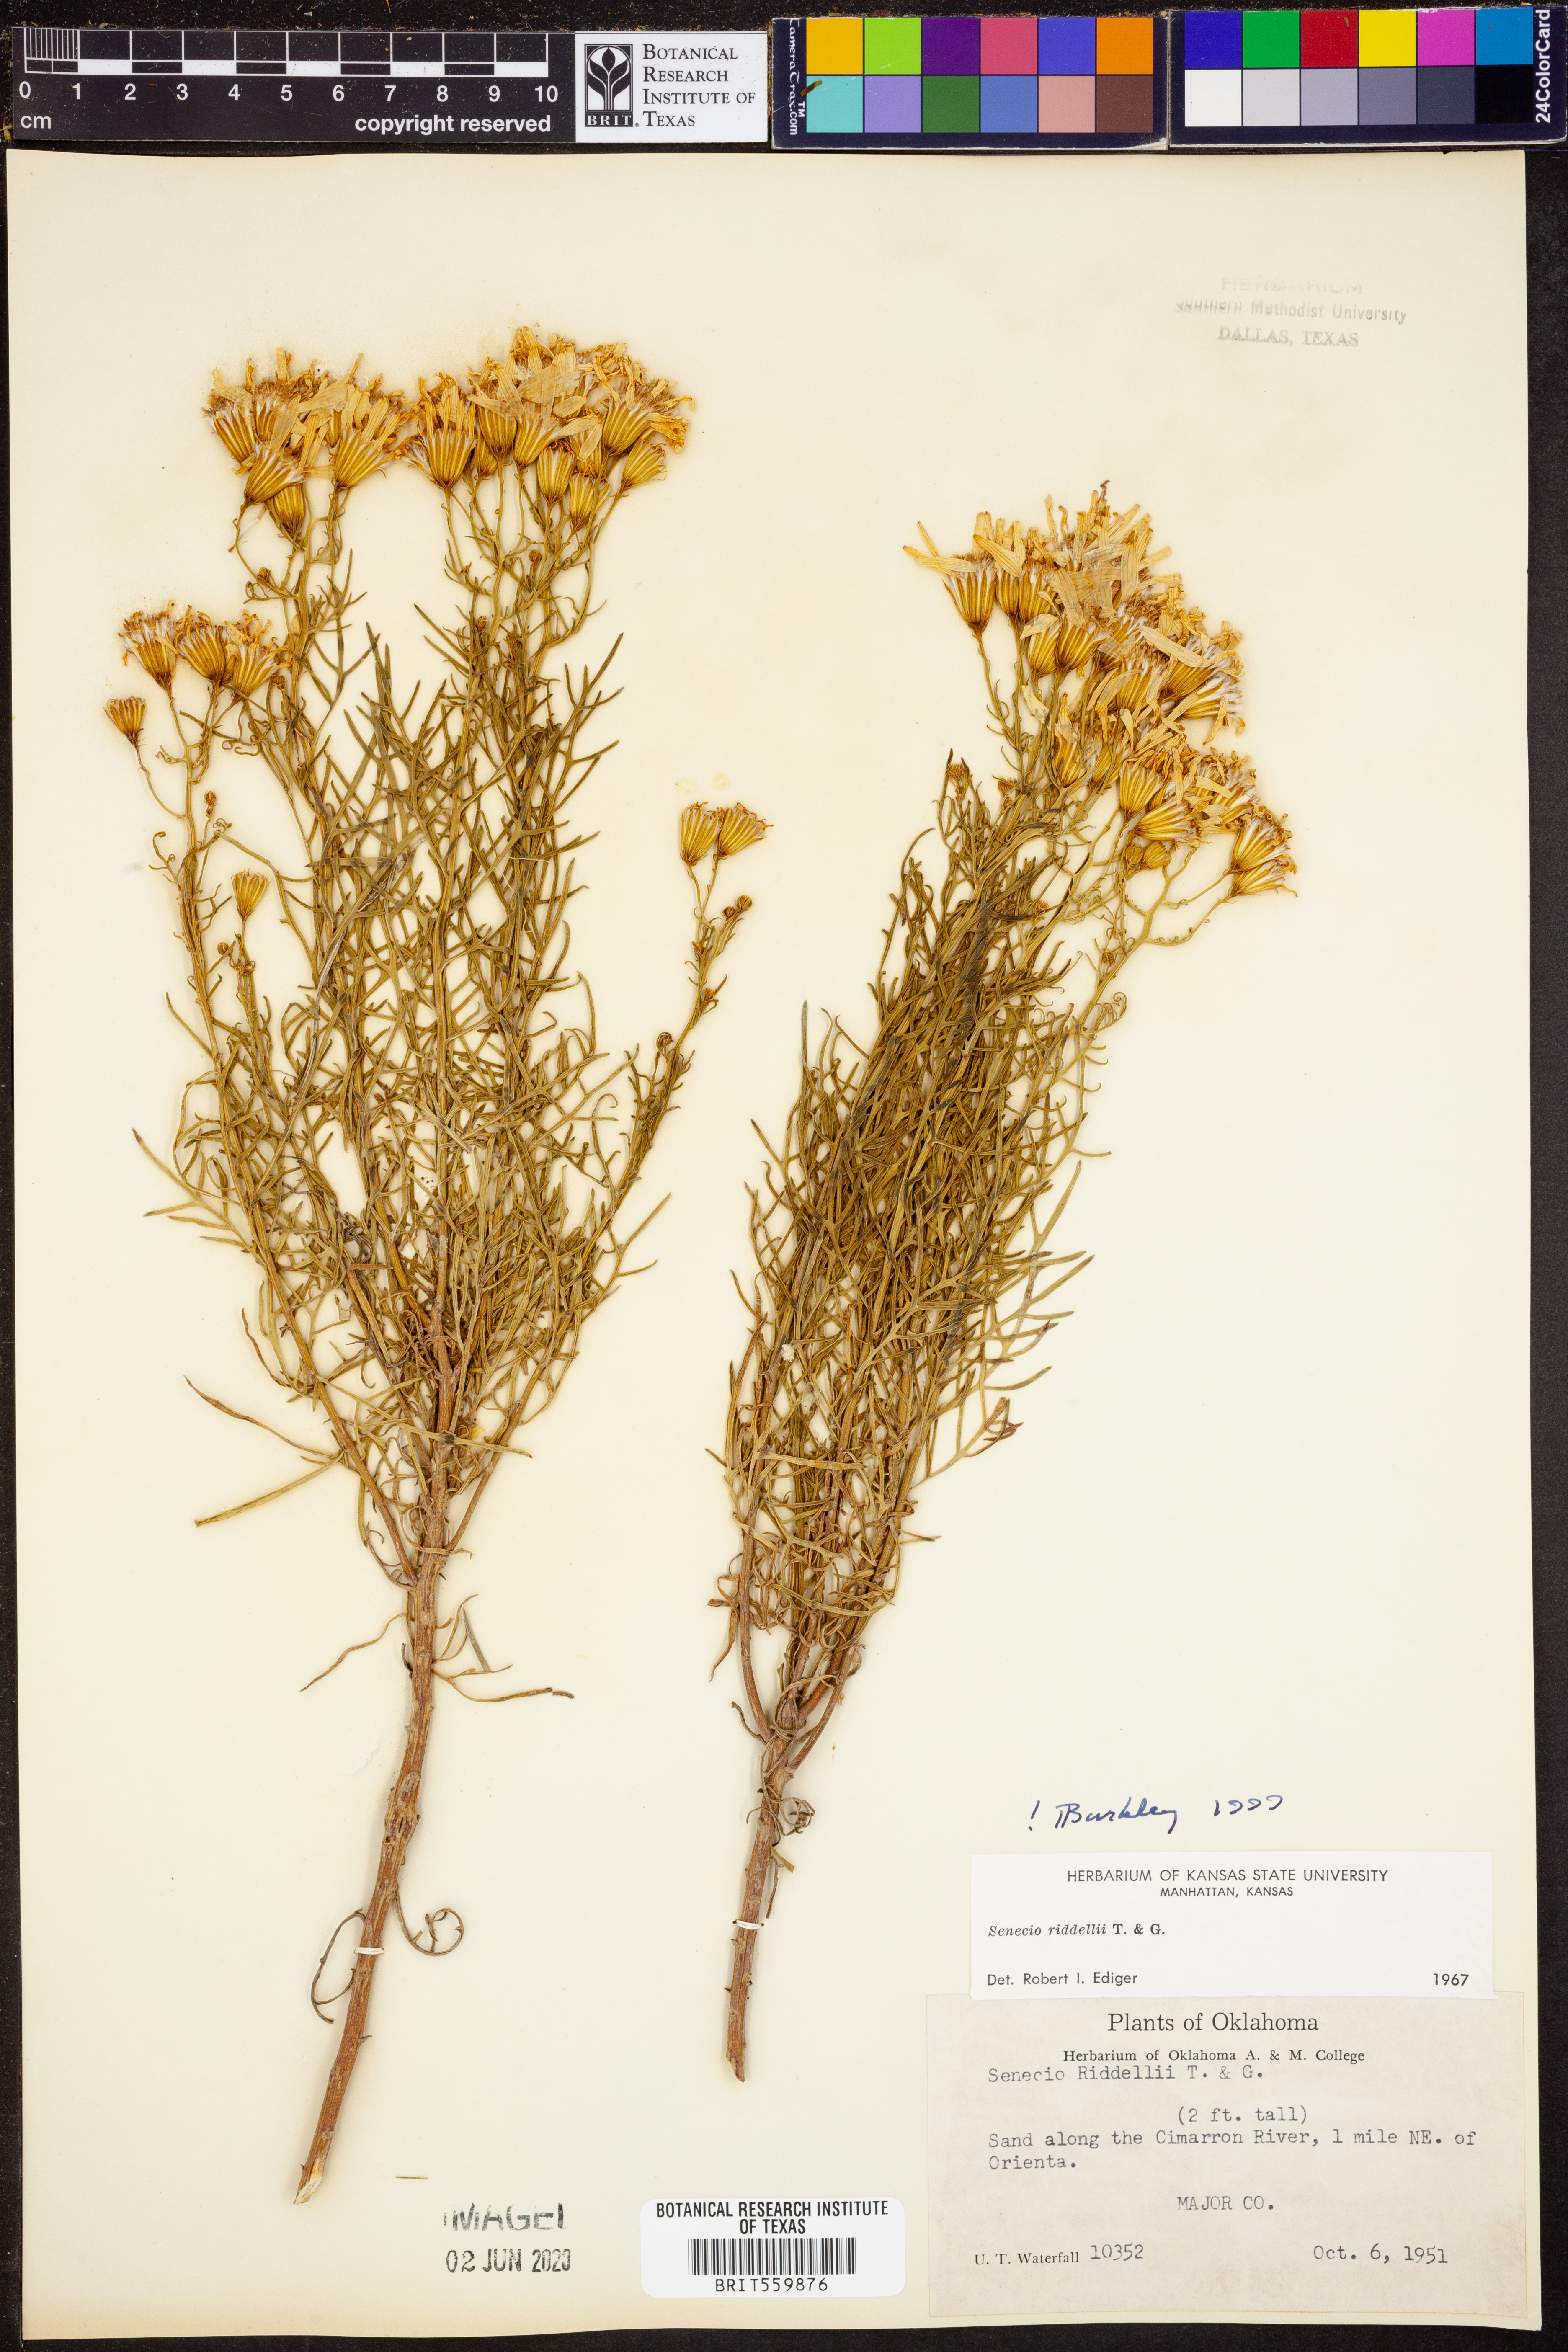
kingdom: Plantae
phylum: Tracheophyta
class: Magnoliopsida
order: Asterales
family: Asteraceae
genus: Senecio
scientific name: Senecio riddellii
